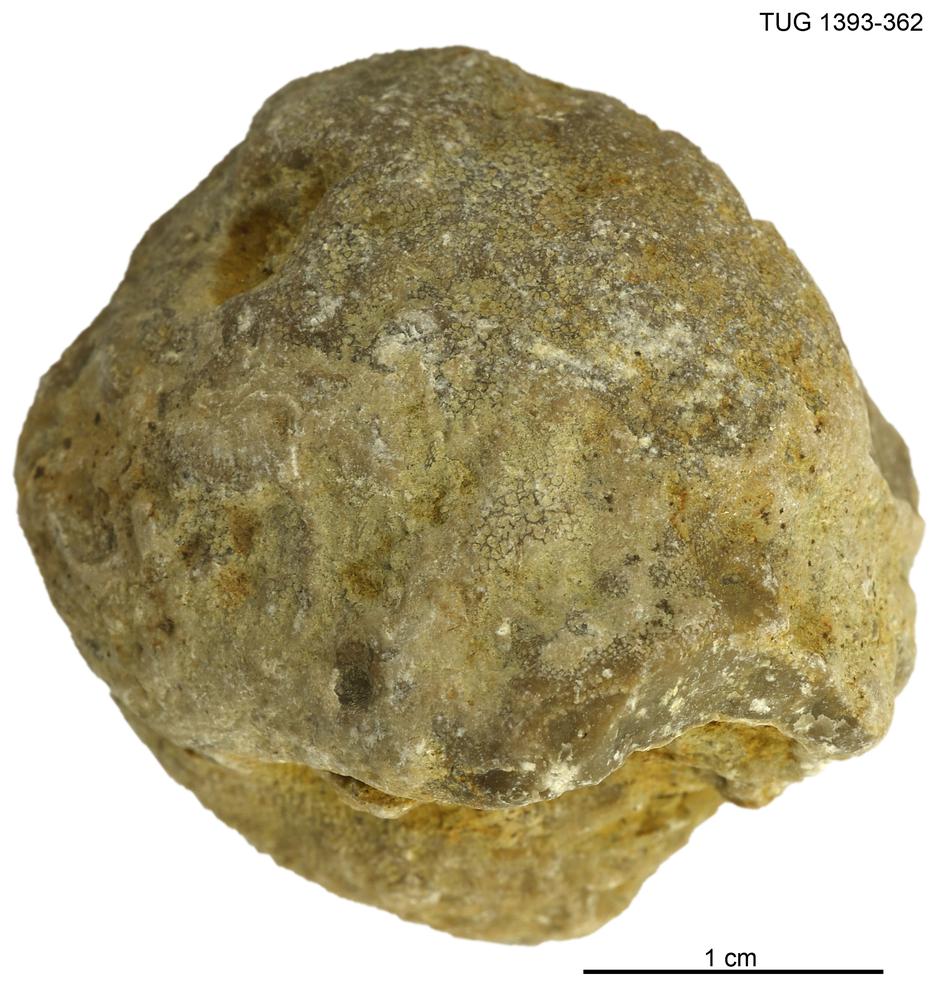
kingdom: Animalia
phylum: Bryozoa
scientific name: Bryozoa
